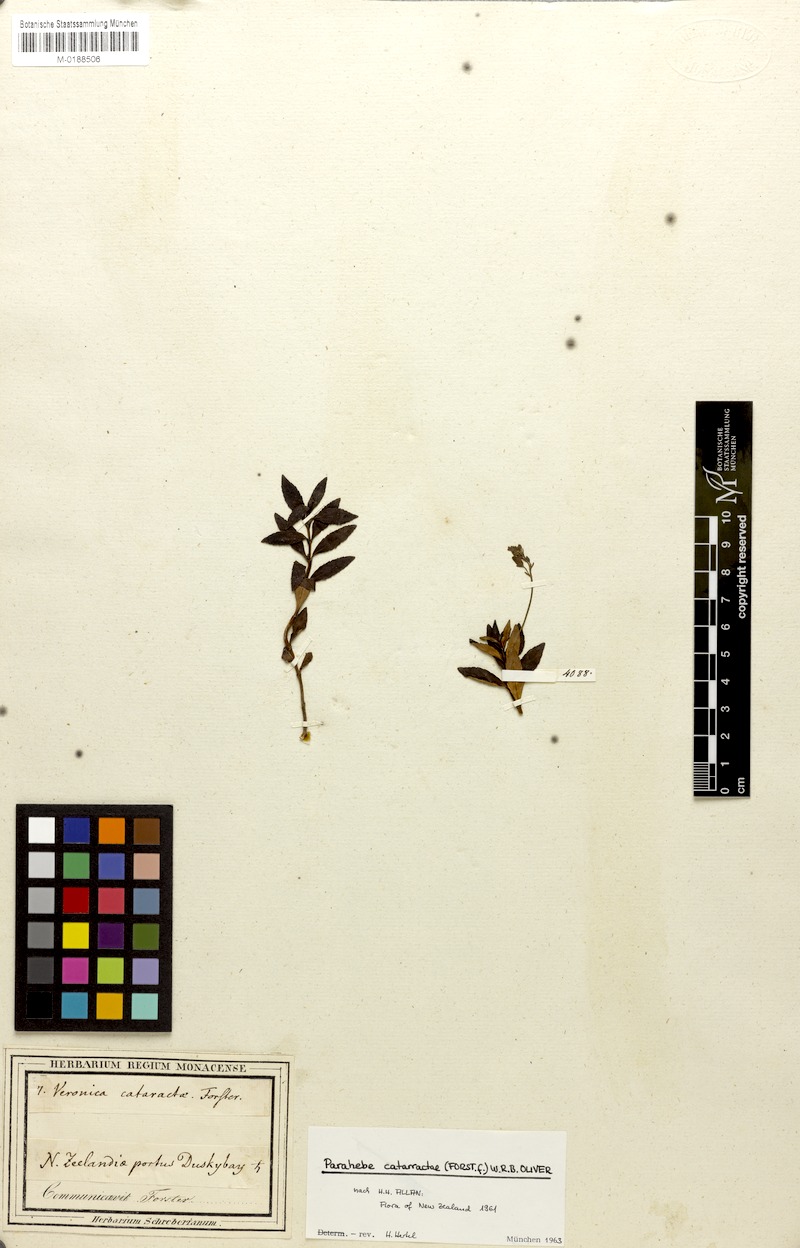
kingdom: Plantae
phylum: Tracheophyta
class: Magnoliopsida
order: Lamiales
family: Plantaginaceae
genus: Veronica
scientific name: Veronica catarractae
